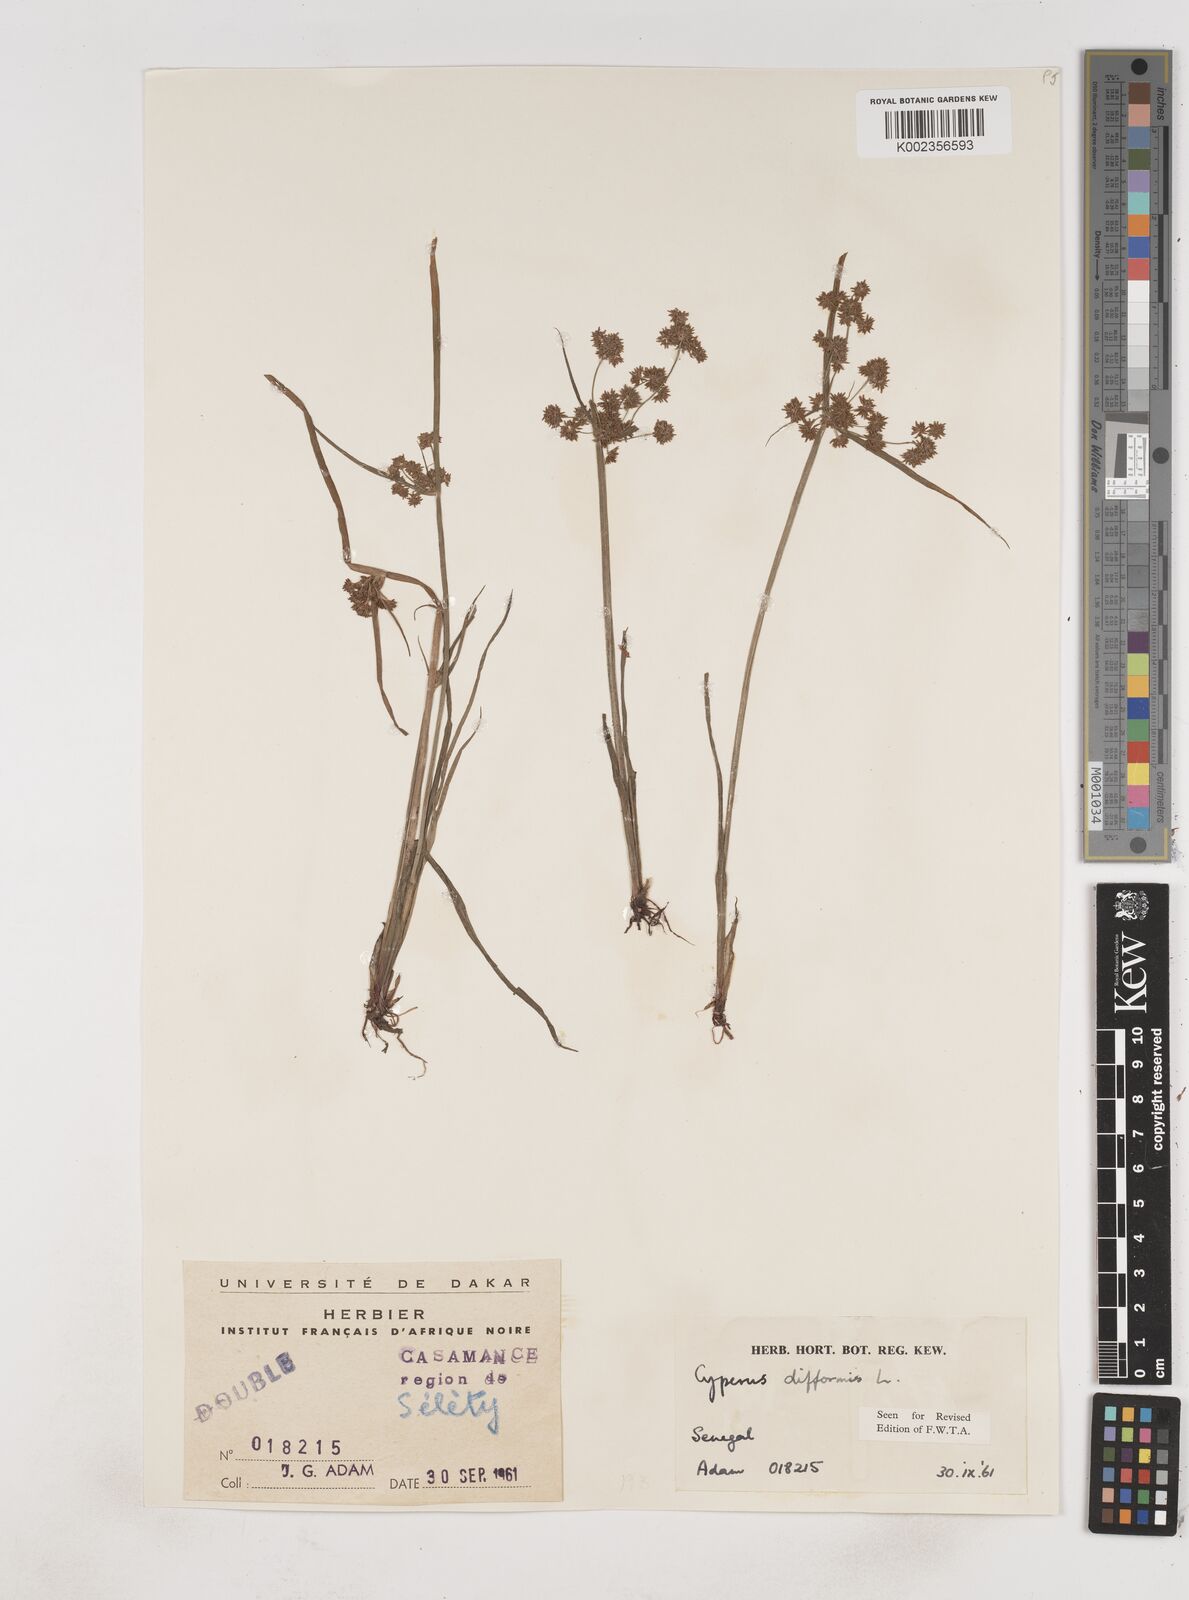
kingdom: Plantae
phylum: Tracheophyta
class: Liliopsida
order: Poales
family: Cyperaceae
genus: Cyperus
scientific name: Cyperus difformis
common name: Variable flatsedge
